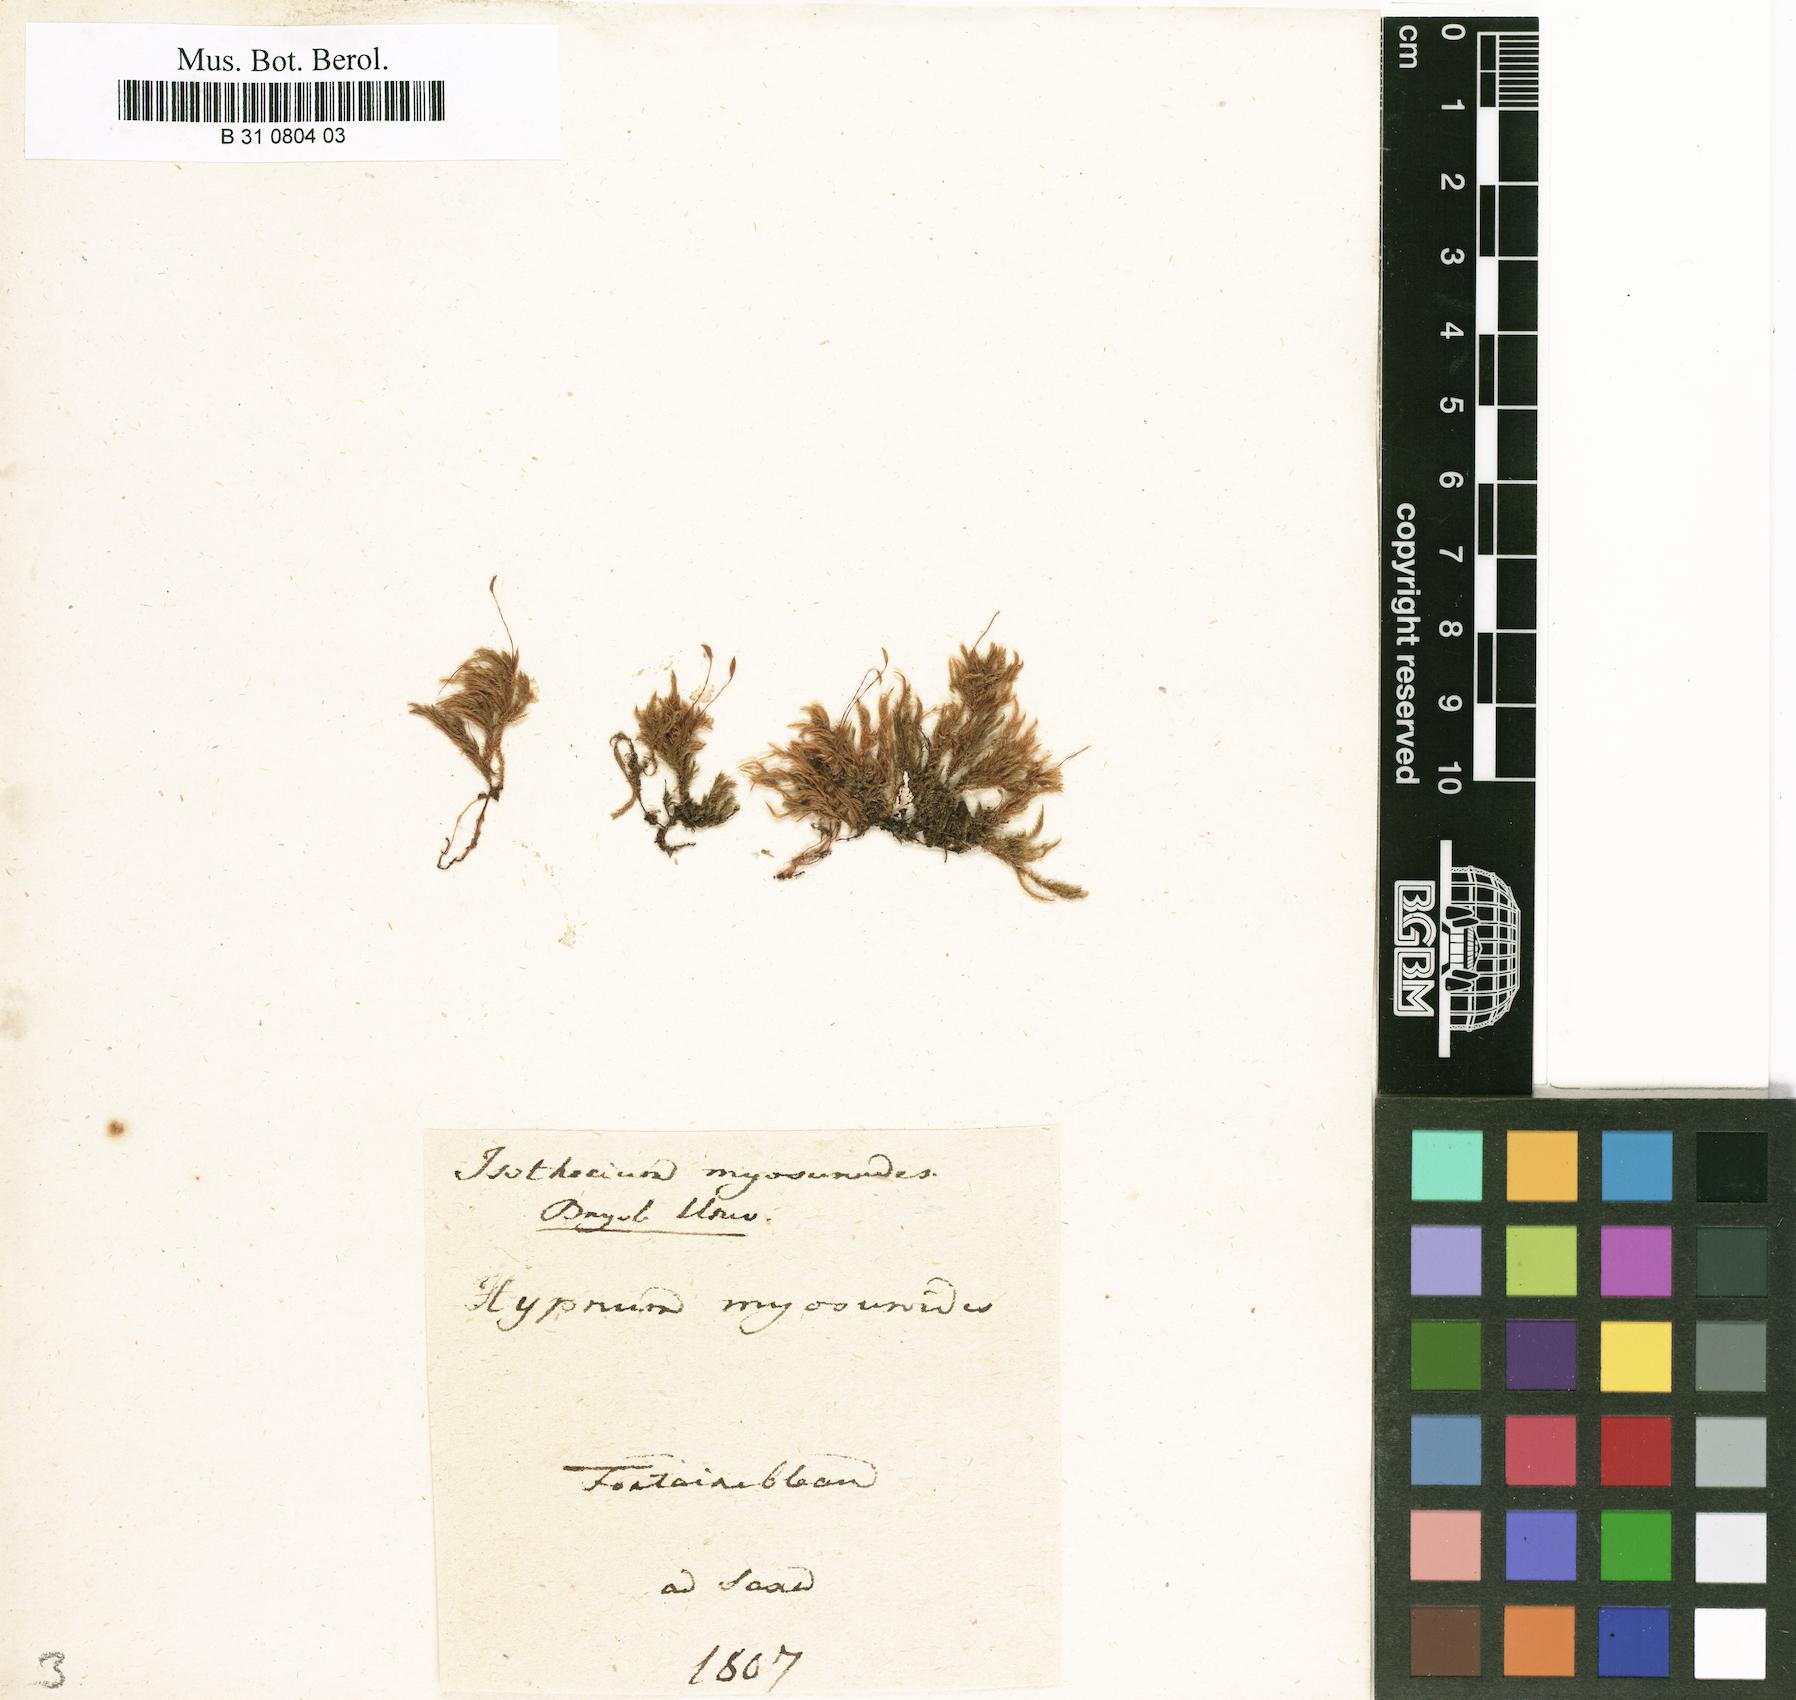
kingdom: Plantae
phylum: Bryophyta
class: Bryopsida
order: Hypnales
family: Lembophyllaceae
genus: Pseudisothecium
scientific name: Pseudisothecium myosuroides
